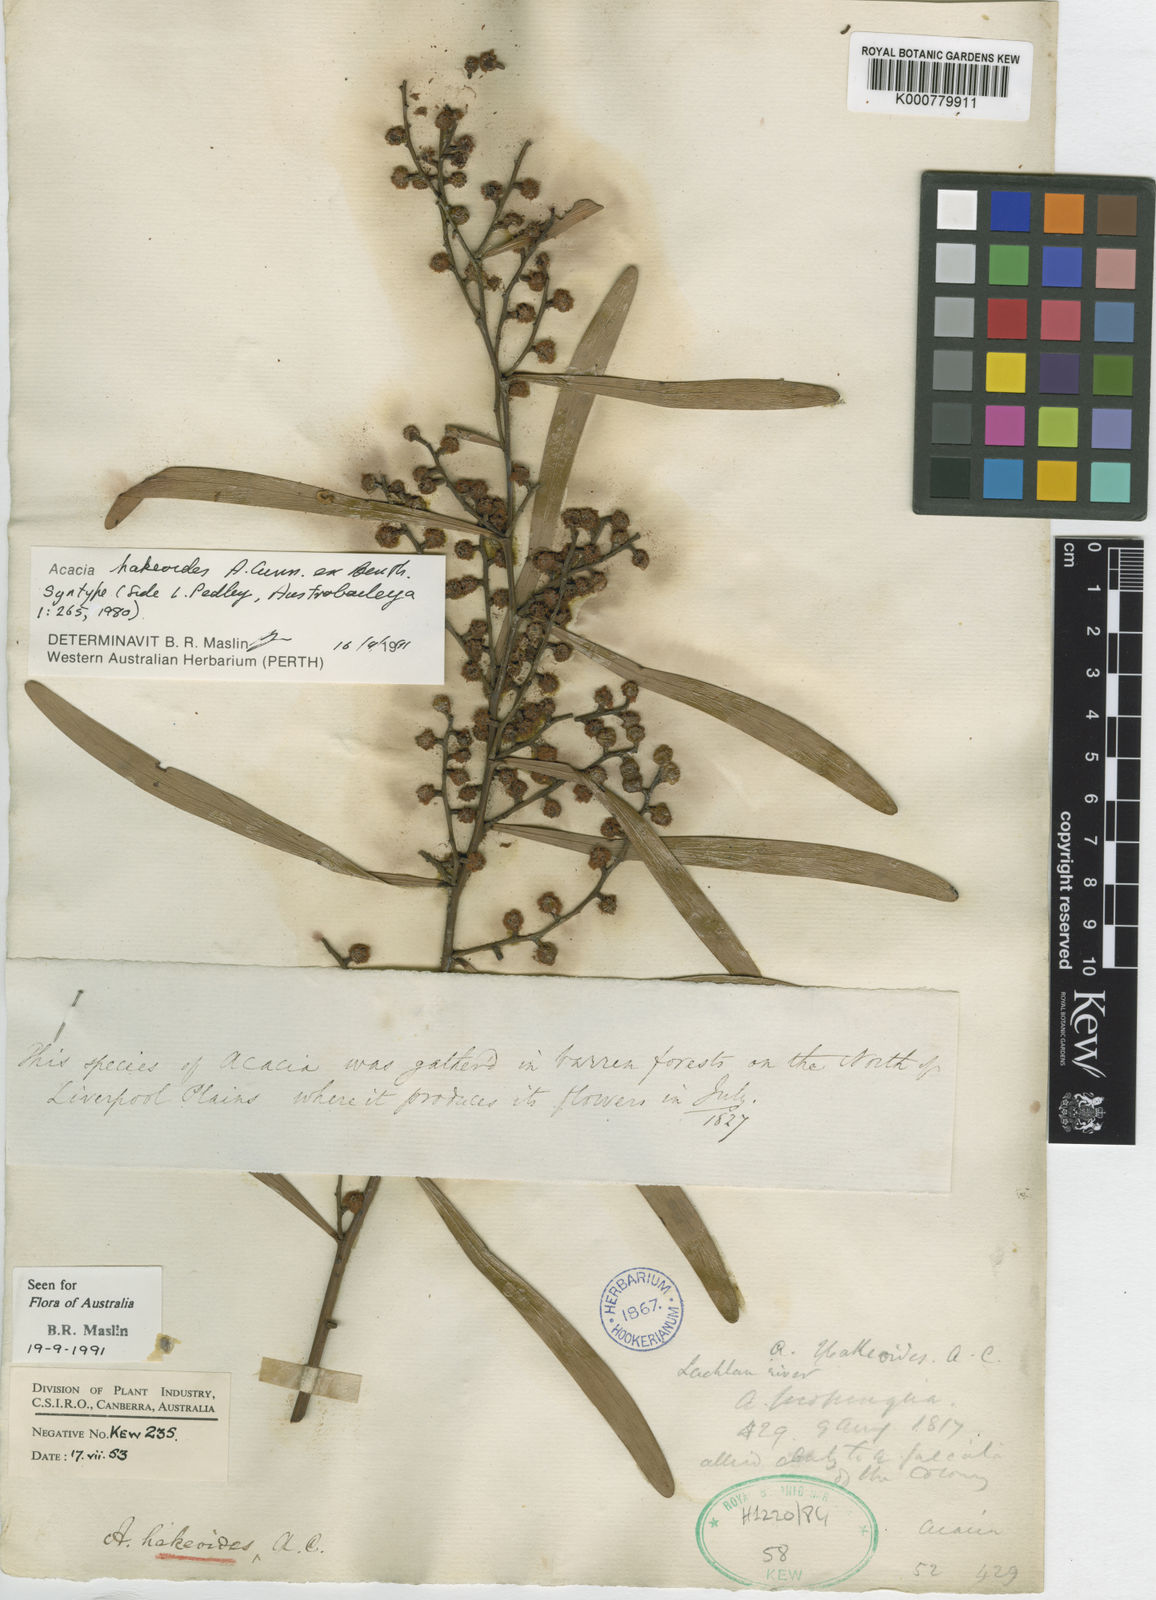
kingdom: Plantae
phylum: Tracheophyta
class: Magnoliopsida
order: Fabales
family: Fabaceae
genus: Acacia
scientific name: Acacia hakeoides
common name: Hakea wattle
